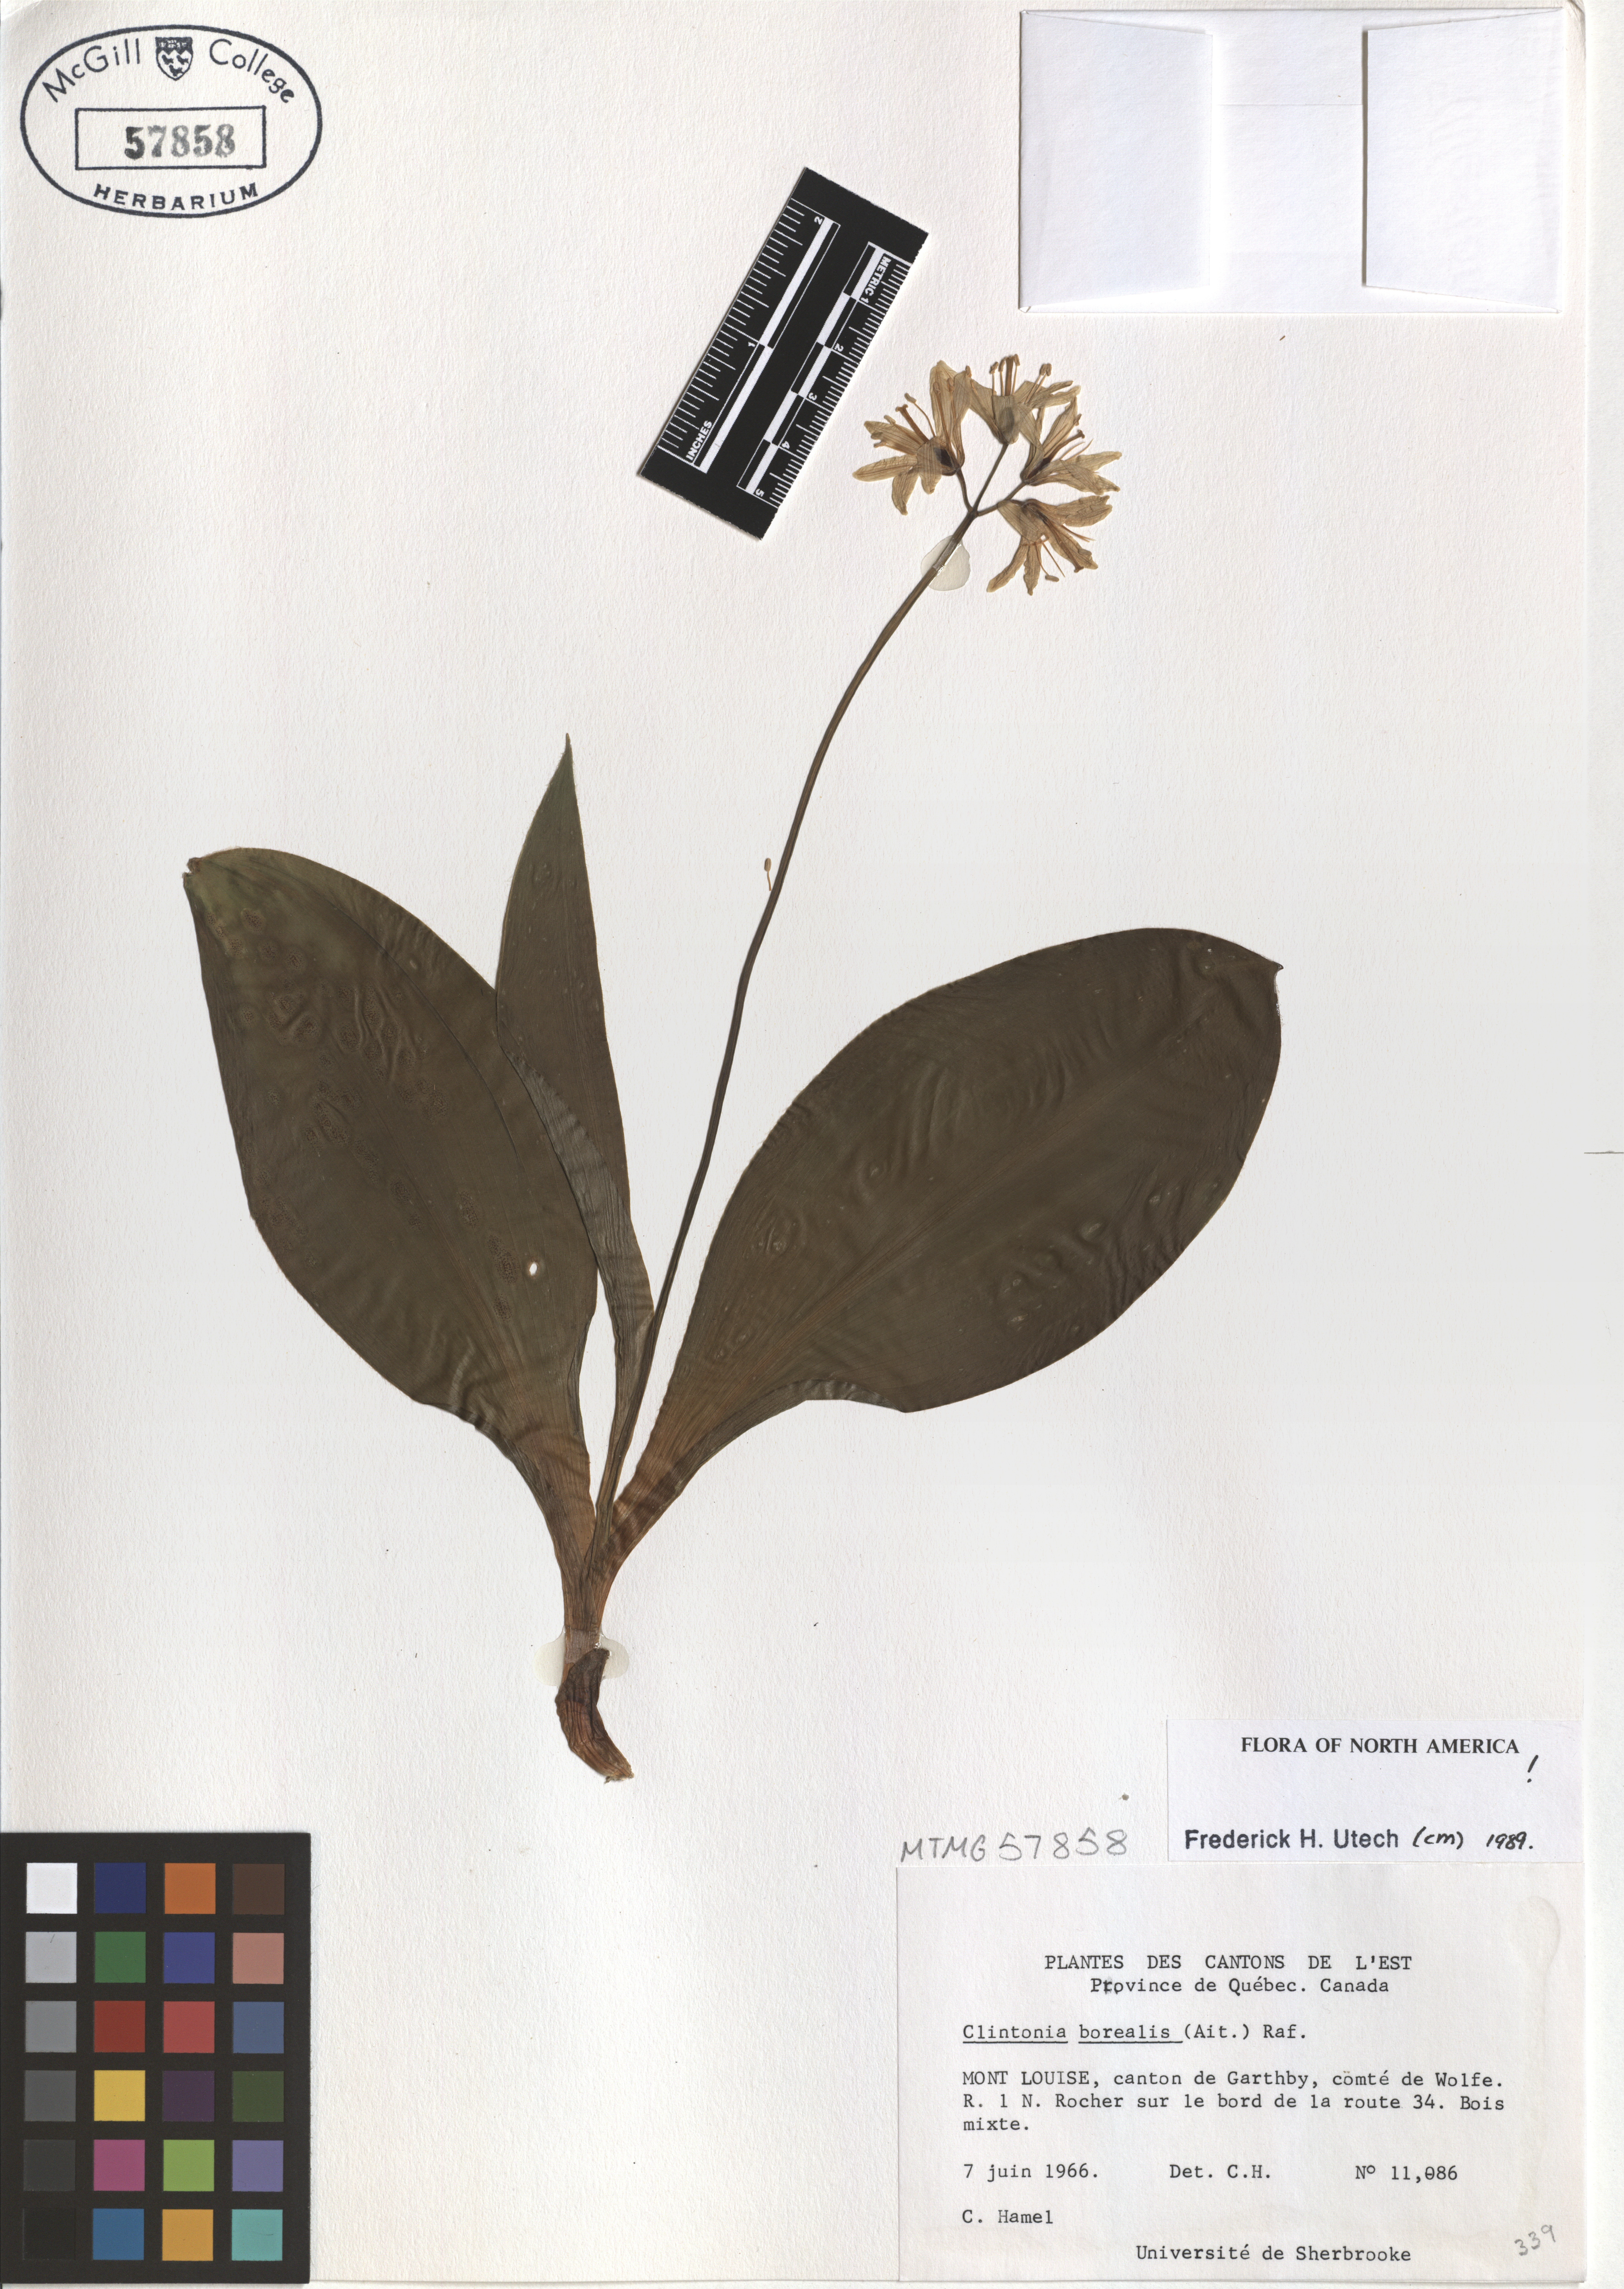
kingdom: Plantae
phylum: Tracheophyta
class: Liliopsida
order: Liliales
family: Liliaceae
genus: Clintonia
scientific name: Clintonia borealis
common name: Yellow clintonia
